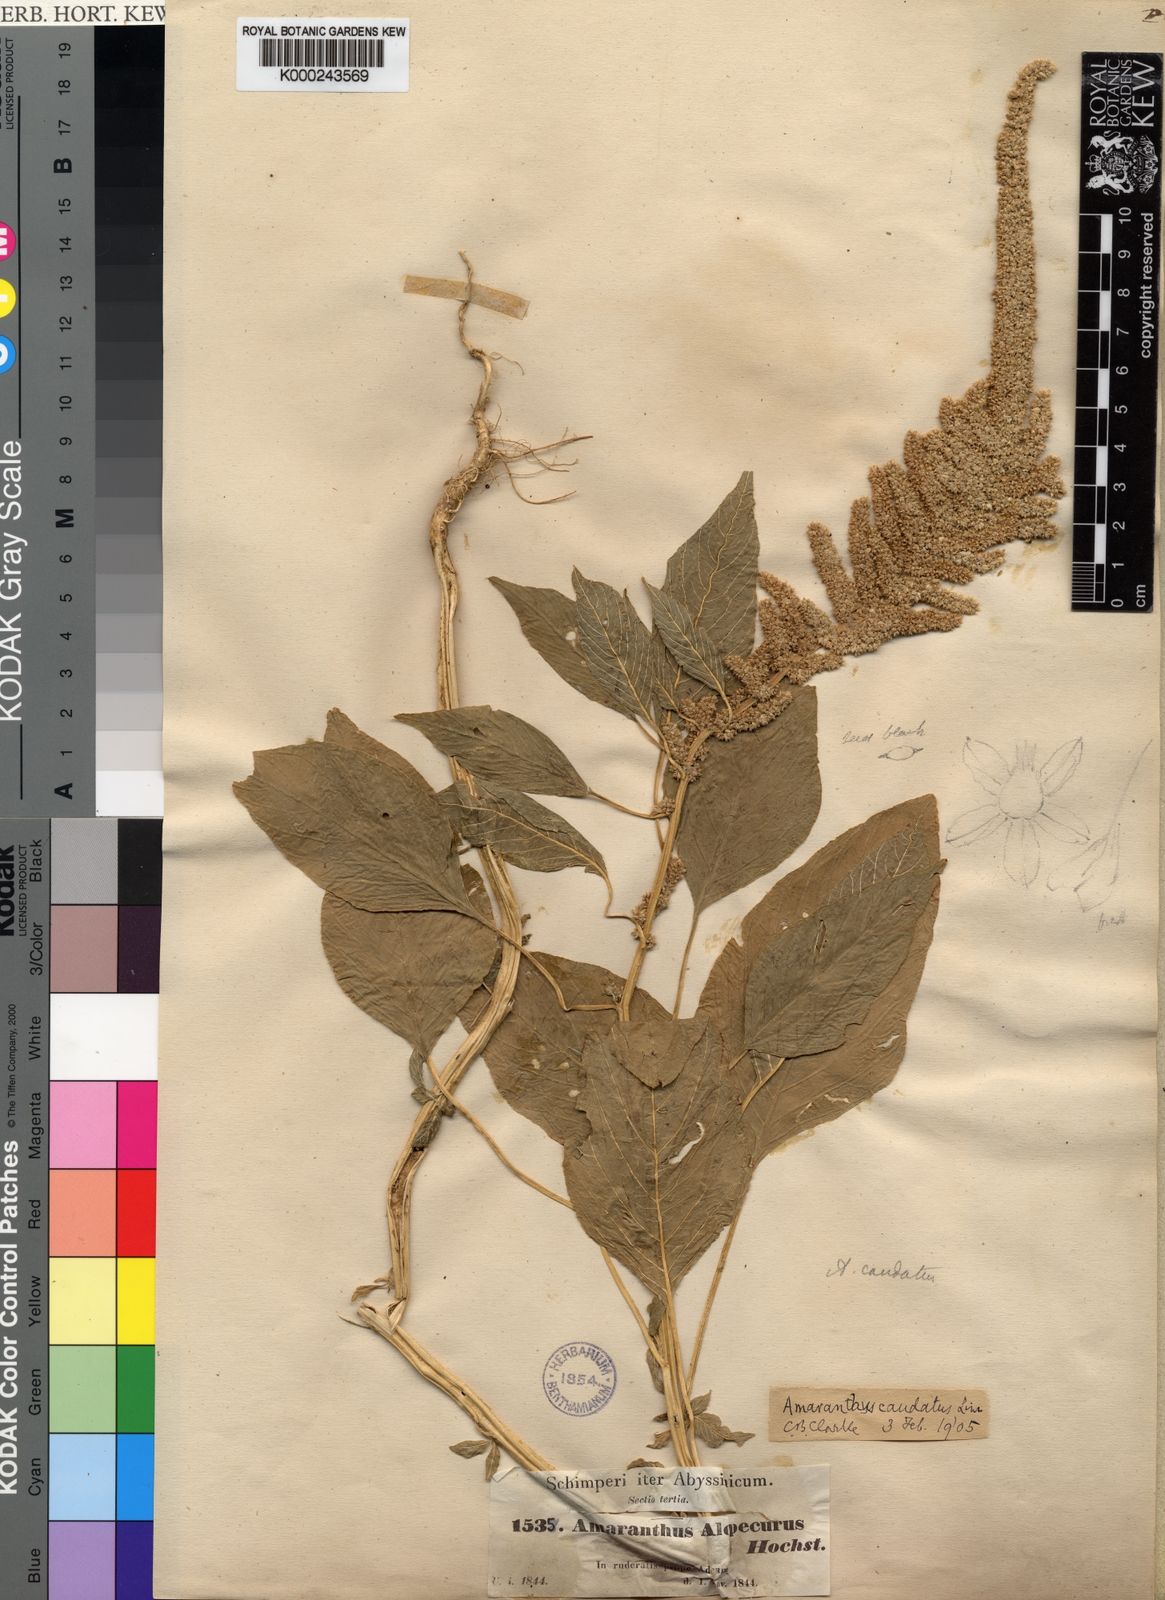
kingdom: Plantae
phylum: Tracheophyta
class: Magnoliopsida
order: Caryophyllales
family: Amaranthaceae
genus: Amaranthus
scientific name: Amaranthus caudatus
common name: Love-lies-bleeding
